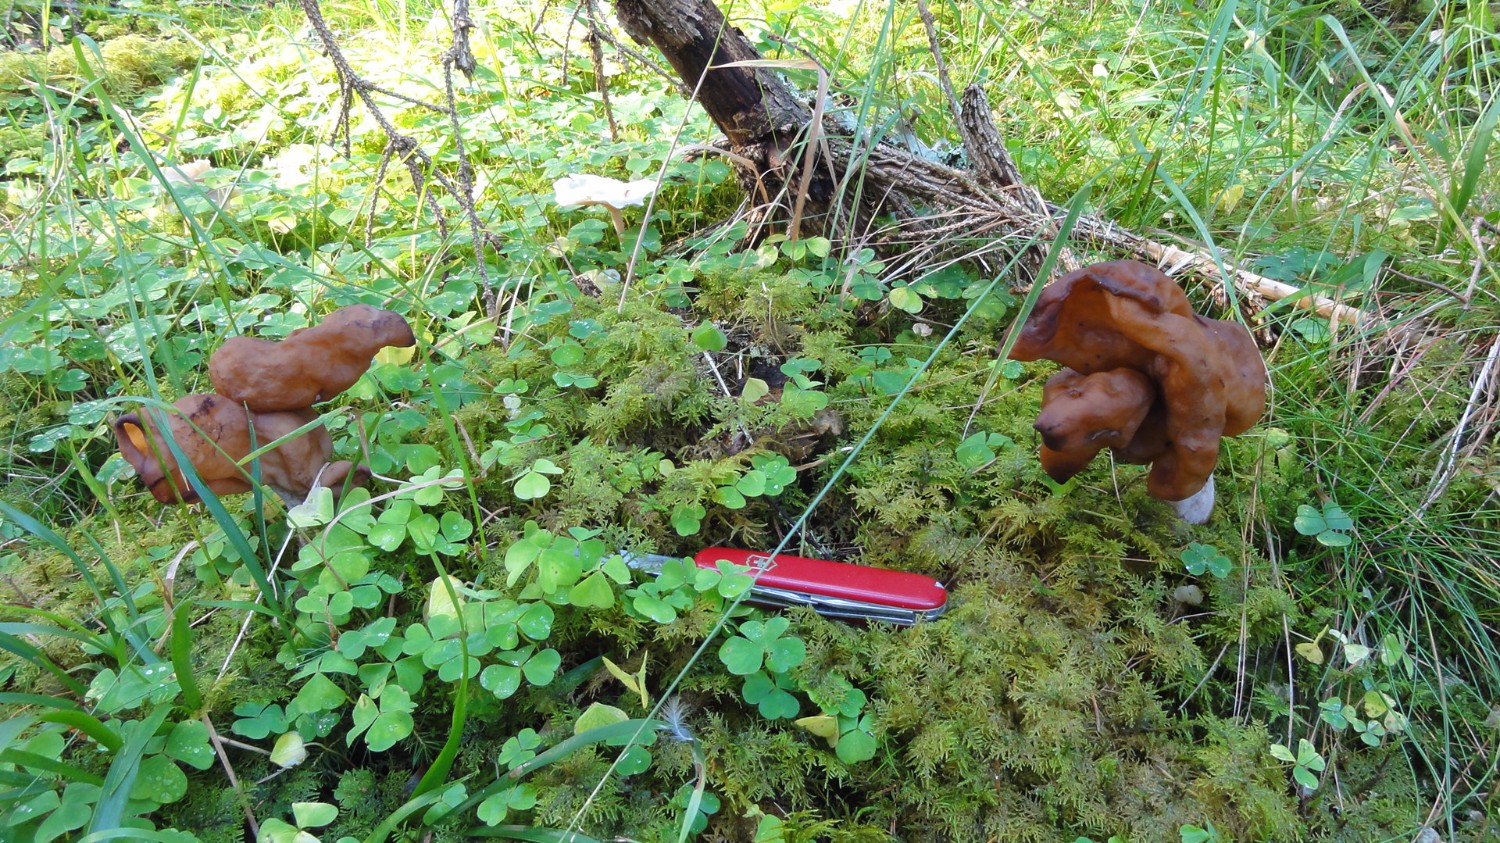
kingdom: Fungi
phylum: Ascomycota
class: Pezizomycetes
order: Pezizales
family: Discinaceae
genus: Gyromitra
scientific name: Gyromitra infula
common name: bispehue-stenmorkel
